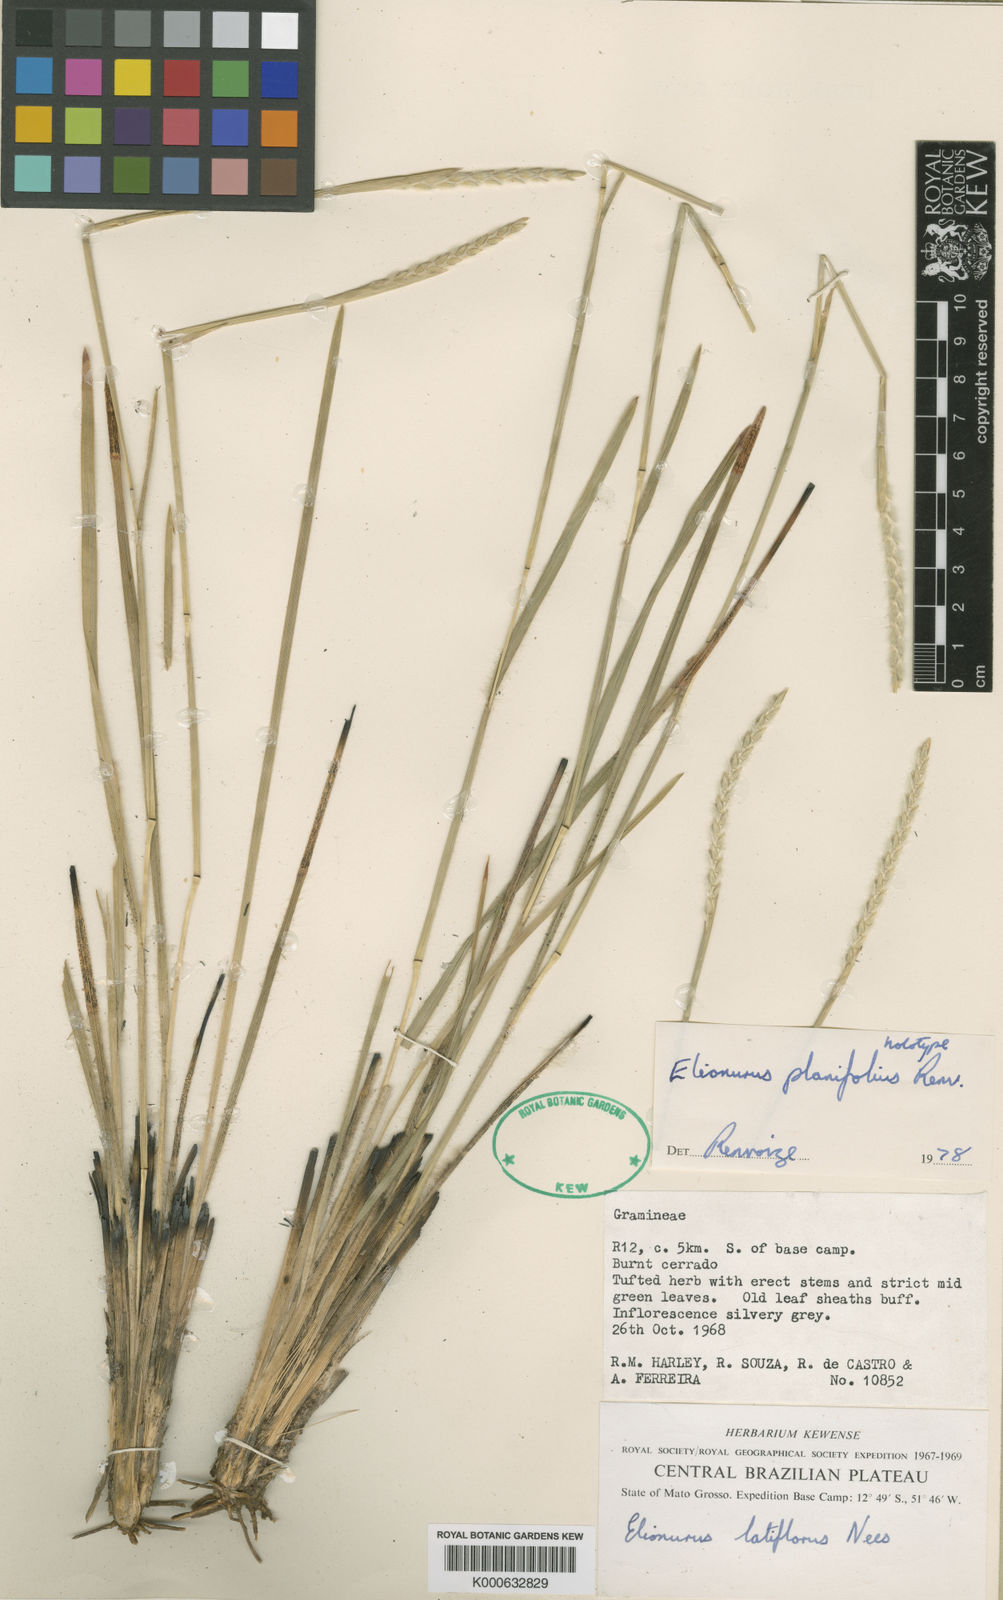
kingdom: Plantae
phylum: Tracheophyta
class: Liliopsida
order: Poales
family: Poaceae
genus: Elionurus
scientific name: Elionurus planifolius
